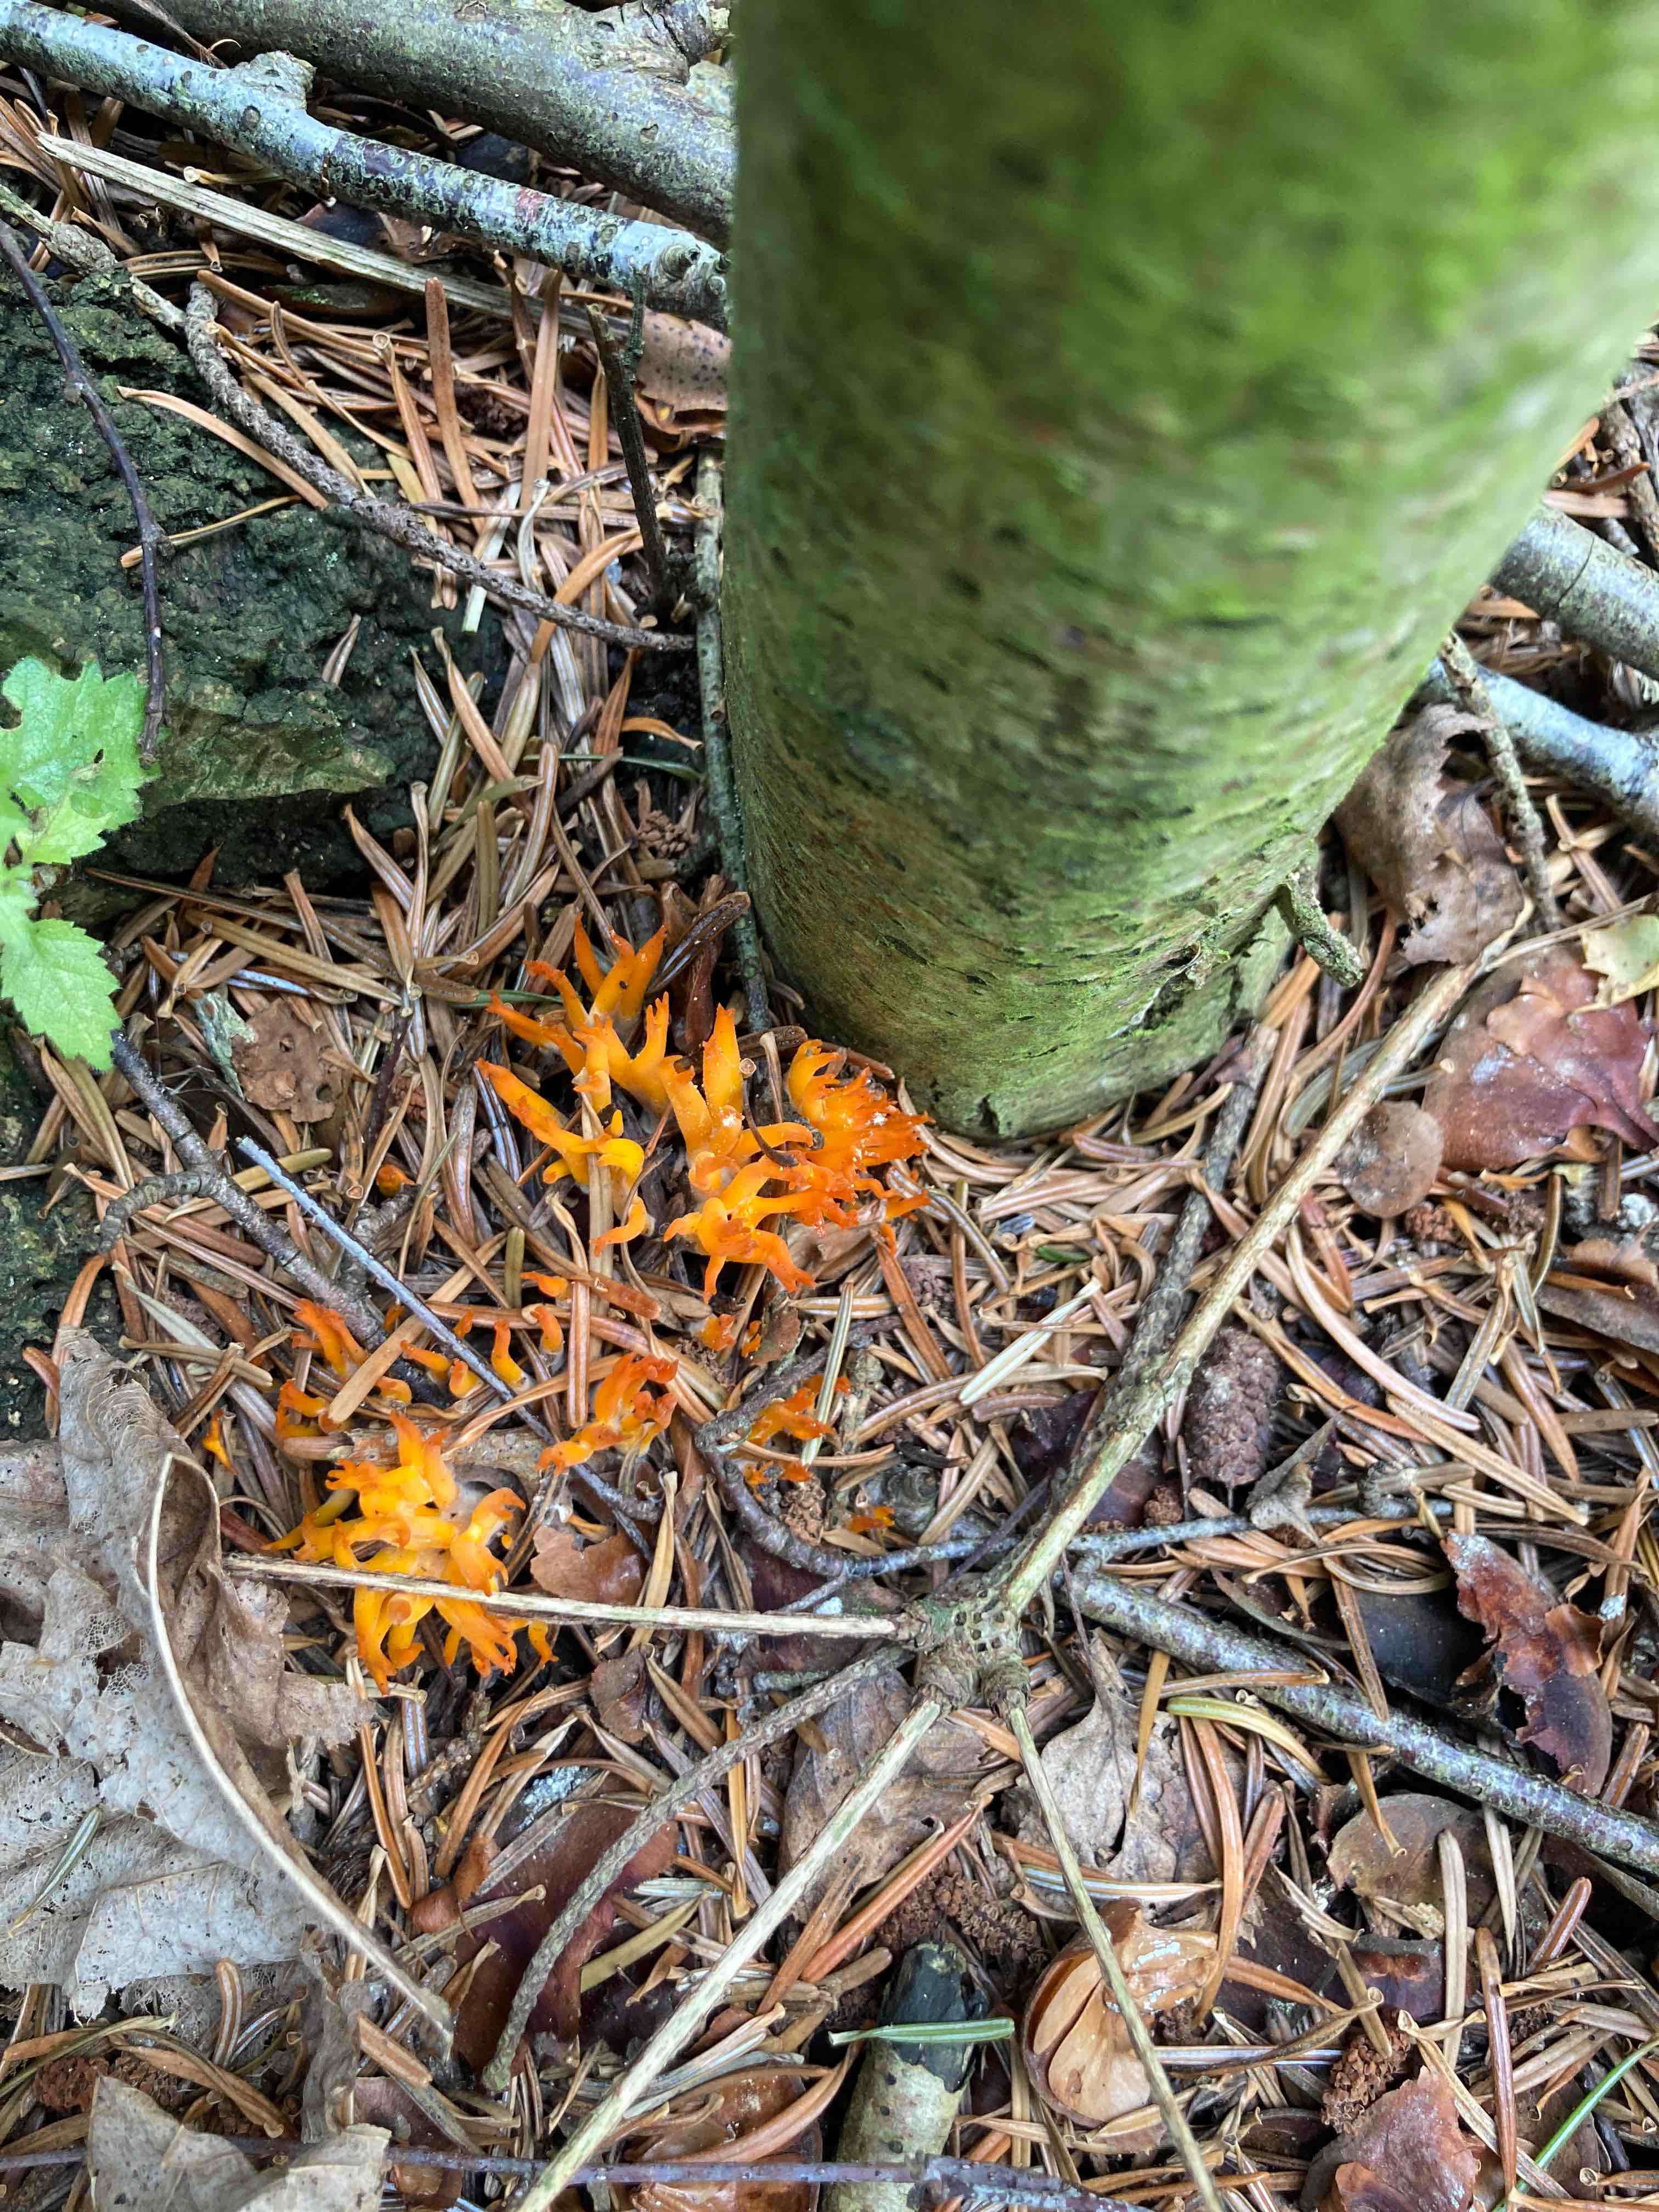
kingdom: Fungi
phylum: Basidiomycota
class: Dacrymycetes
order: Dacrymycetales
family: Dacrymycetaceae
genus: Calocera
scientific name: Calocera viscosa
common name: almindelig guldgaffel
